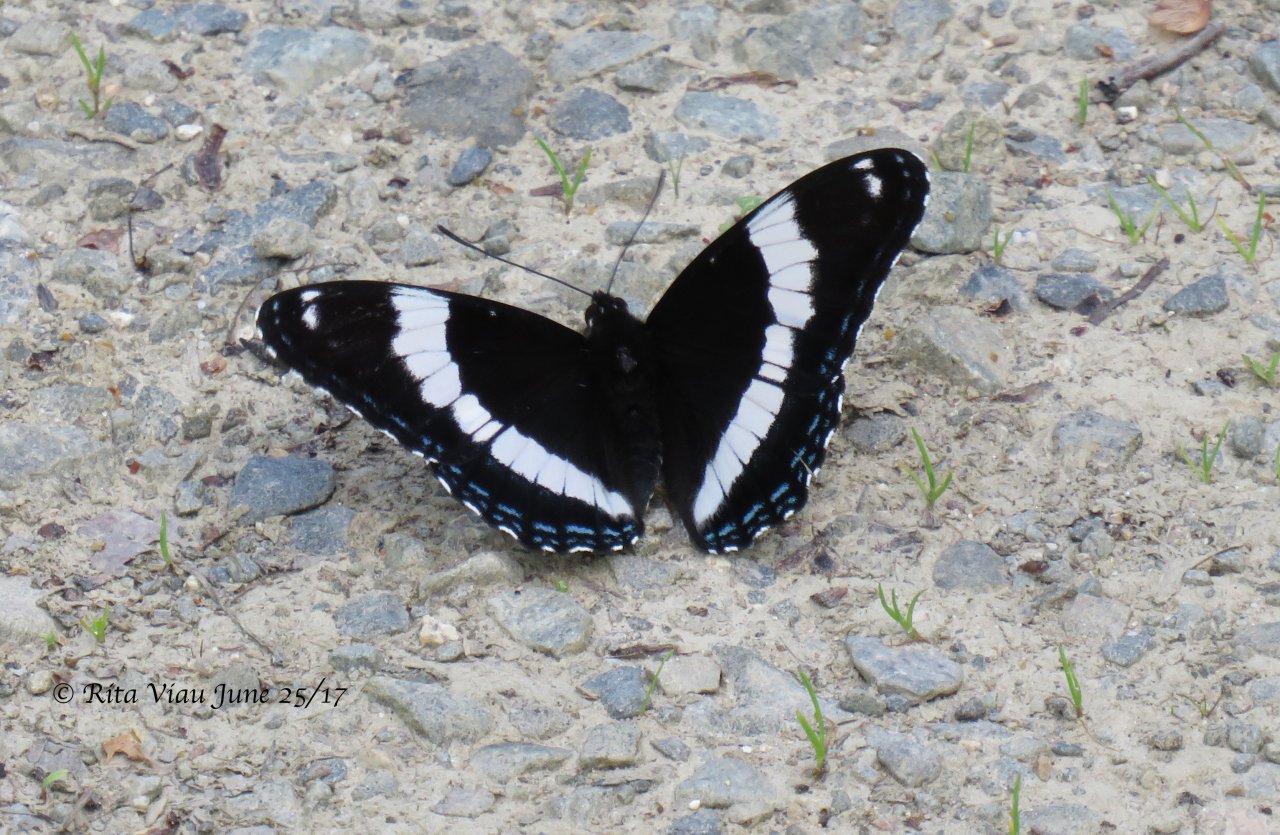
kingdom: Animalia
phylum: Arthropoda
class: Insecta
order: Lepidoptera
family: Nymphalidae
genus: Limenitis
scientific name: Limenitis arthemis
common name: Red-spotted Admiral
